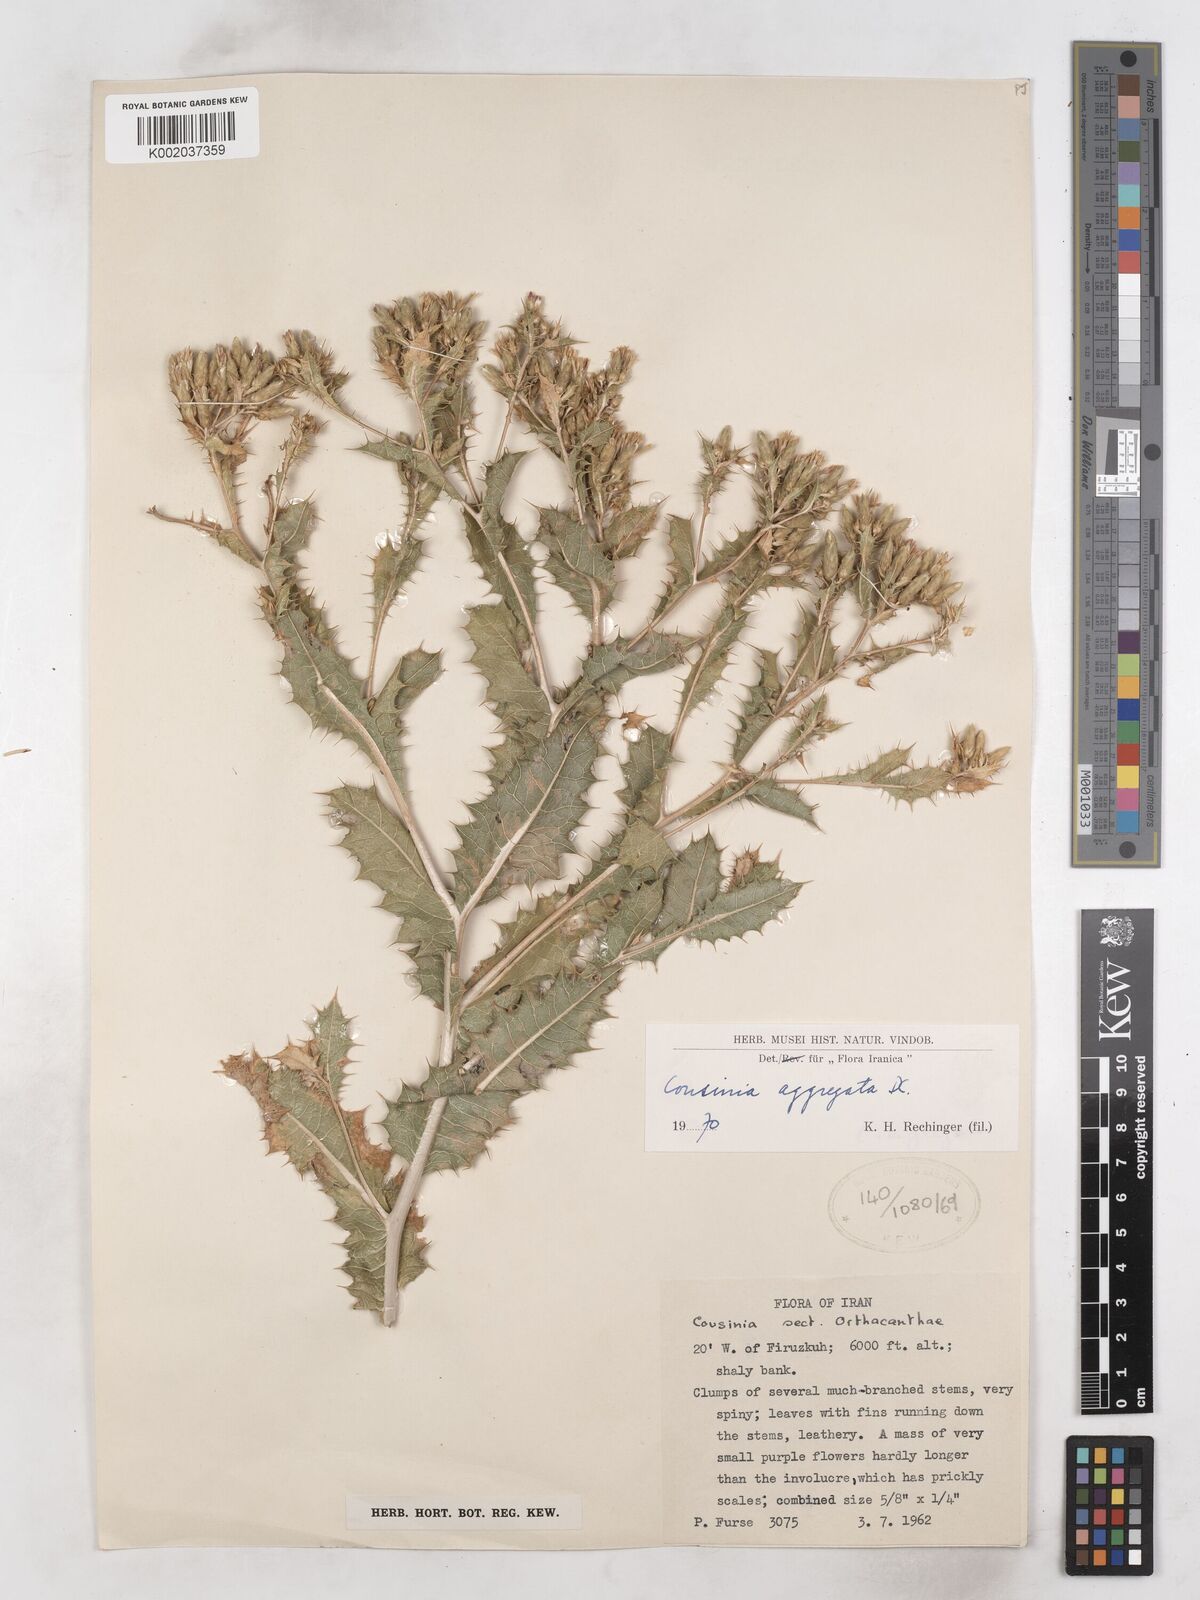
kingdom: Plantae
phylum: Tracheophyta
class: Magnoliopsida
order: Asterales
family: Asteraceae
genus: Cousinia
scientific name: Cousinia aggregata
